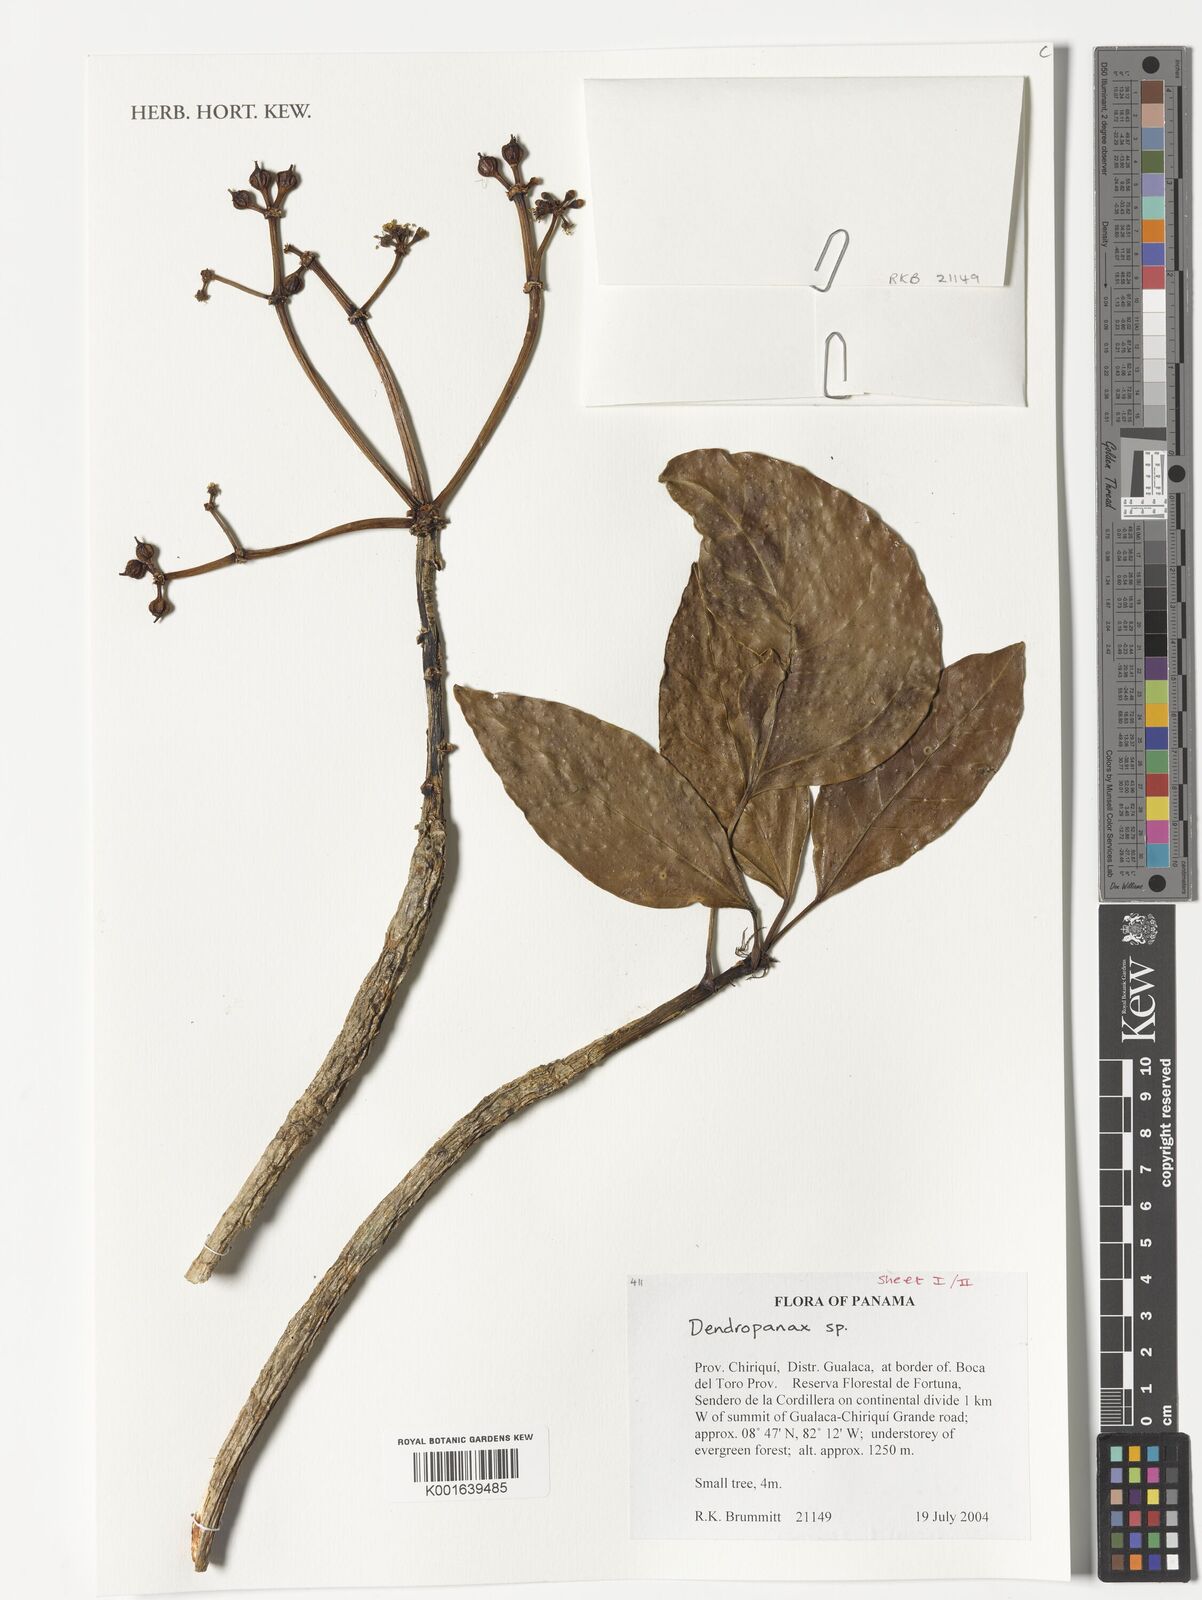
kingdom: Plantae
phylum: Tracheophyta
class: Magnoliopsida
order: Apiales
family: Araliaceae
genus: Dendropanax
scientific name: Dendropanax
